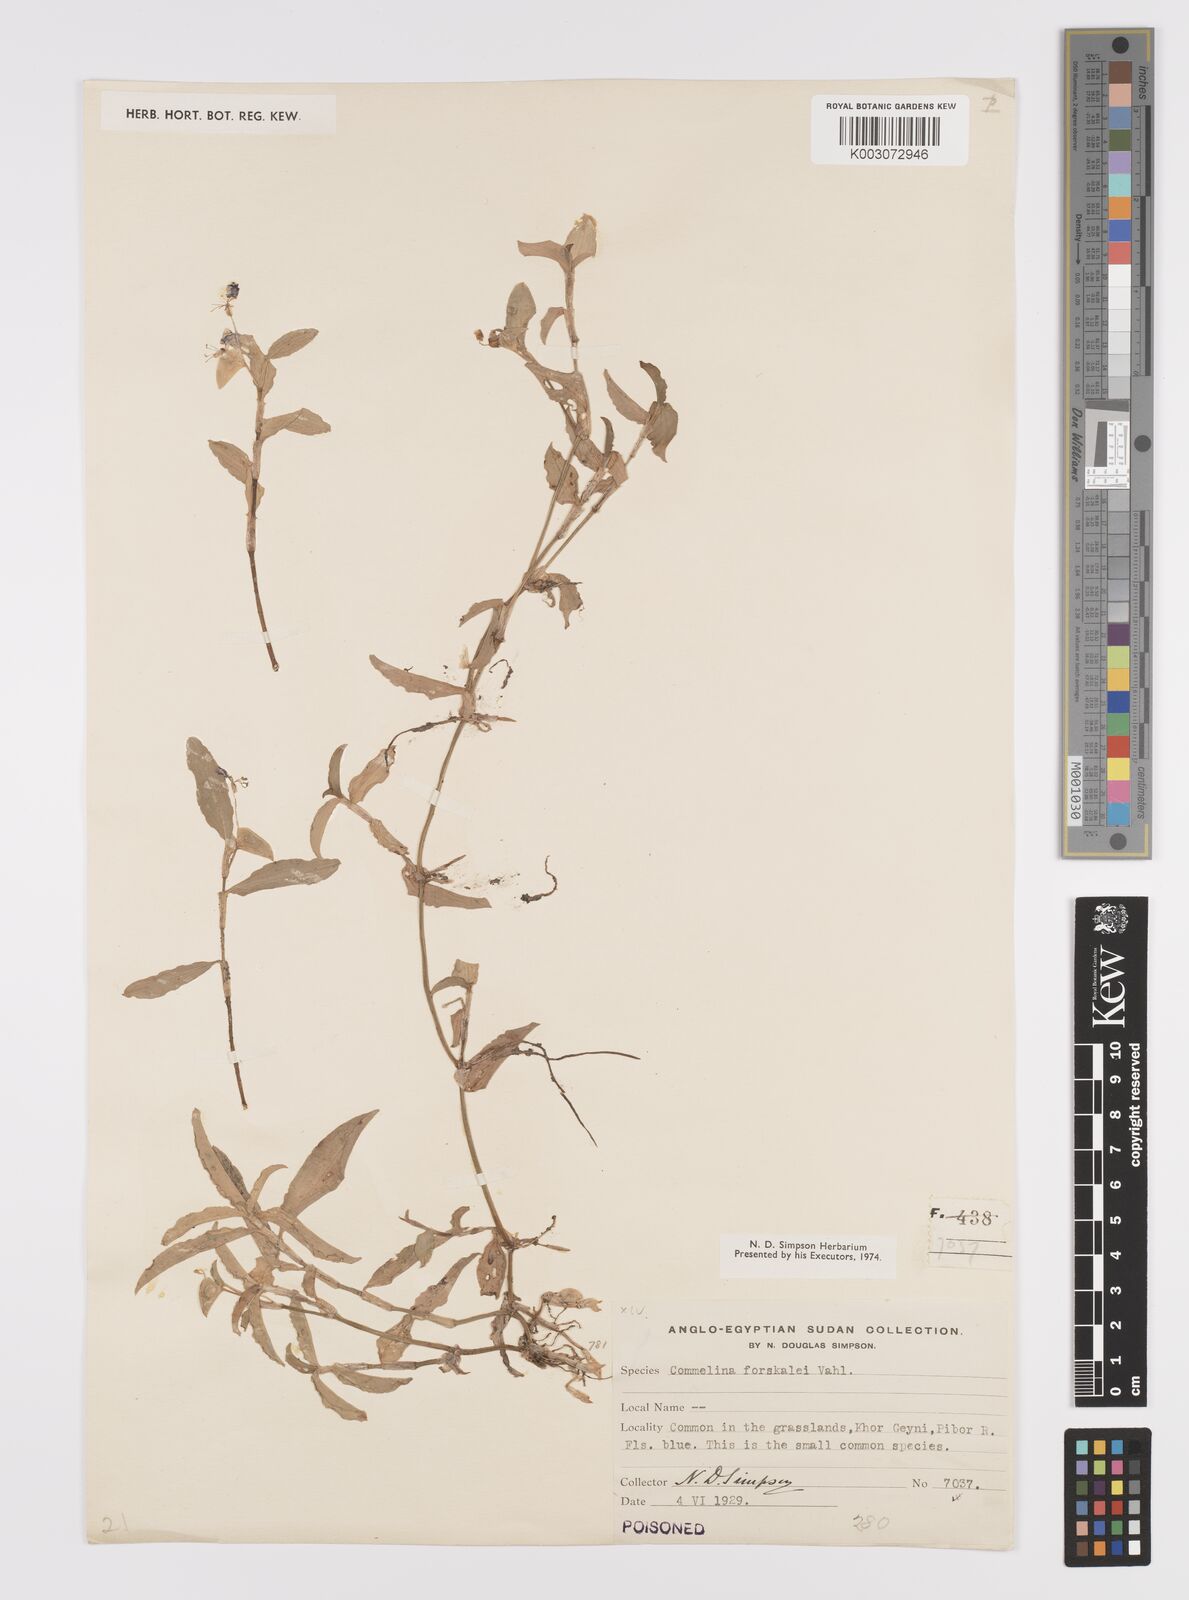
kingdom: Plantae
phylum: Tracheophyta
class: Liliopsida
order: Commelinales
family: Commelinaceae
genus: Commelina
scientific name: Commelina forskaolii
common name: Rat's ear
